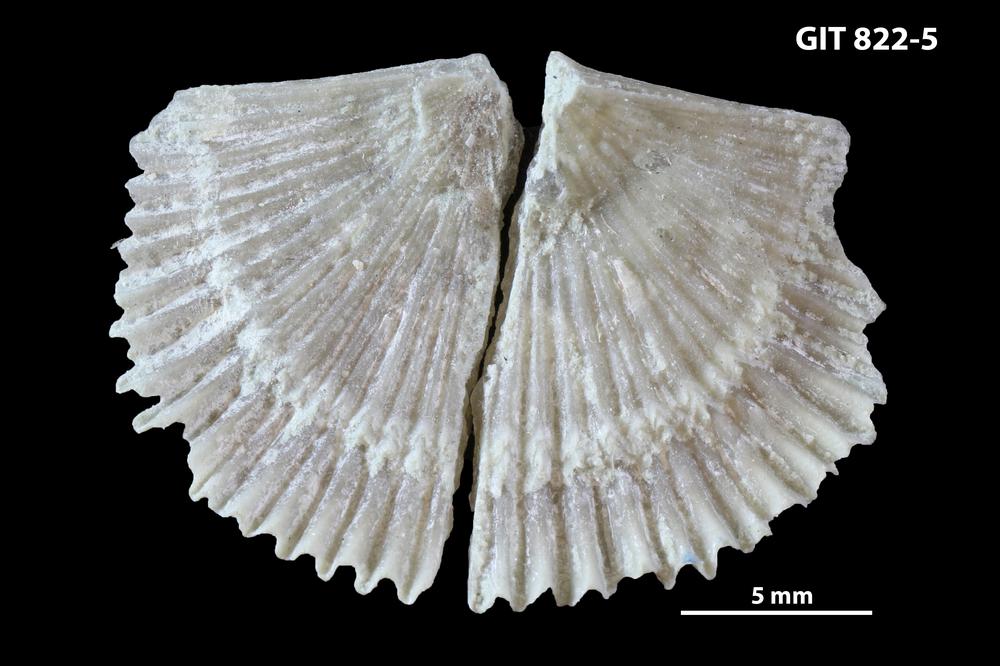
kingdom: Animalia
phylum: Brachiopoda
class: Rhynchonellata
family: Productorthidae
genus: Panderina
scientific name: Panderina abscissus
